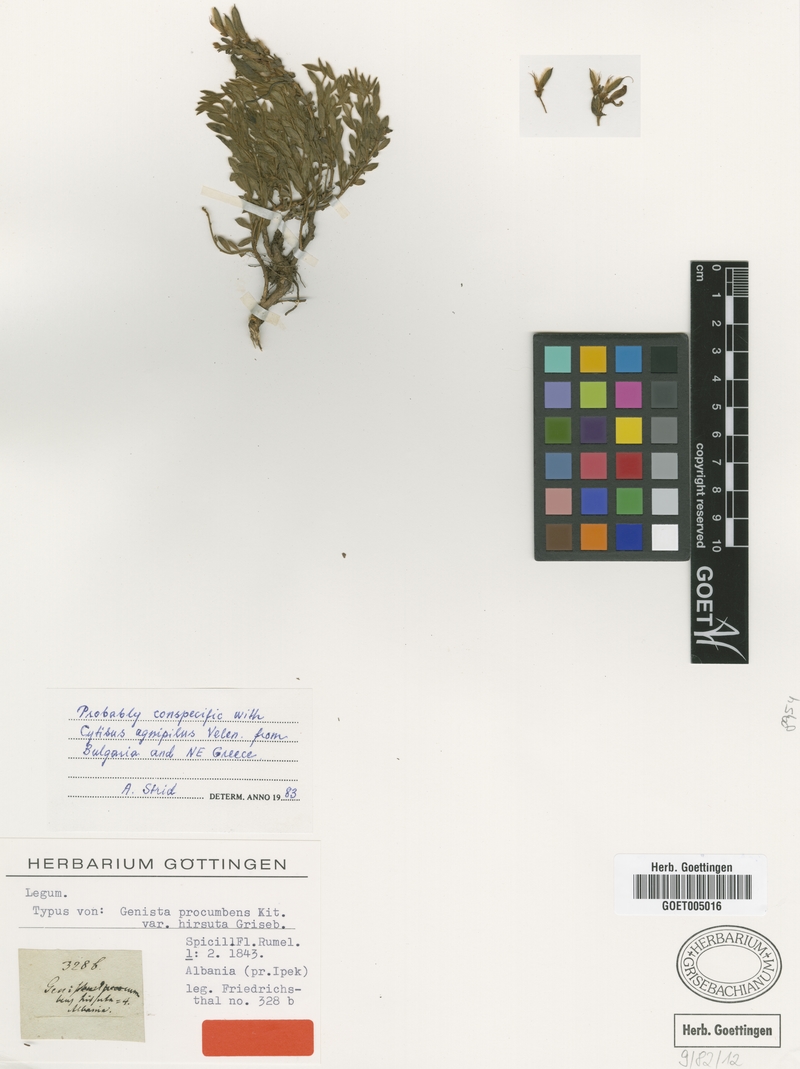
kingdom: Plantae
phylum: Tracheophyta
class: Magnoliopsida
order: Fabales
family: Fabaceae
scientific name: Fabaceae
